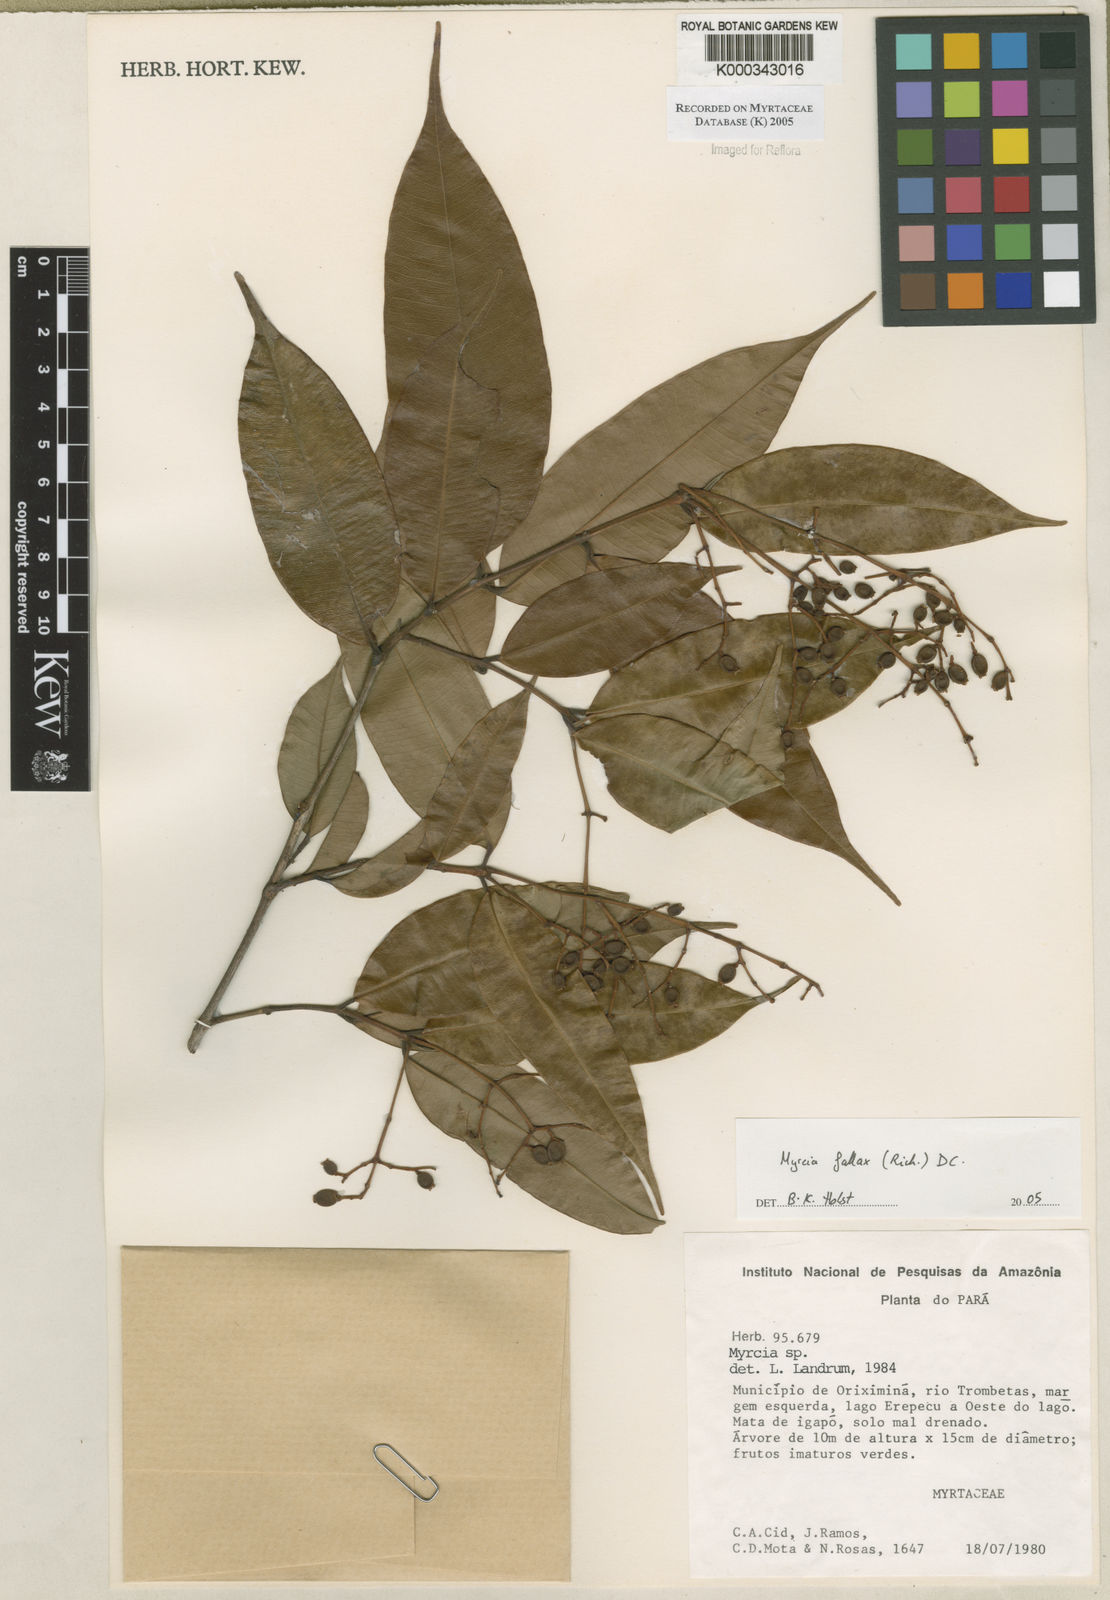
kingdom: Plantae
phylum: Tracheophyta
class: Magnoliopsida
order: Myrtales
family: Myrtaceae
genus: Myrcia
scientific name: Myrcia splendens
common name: Surinam cherry
